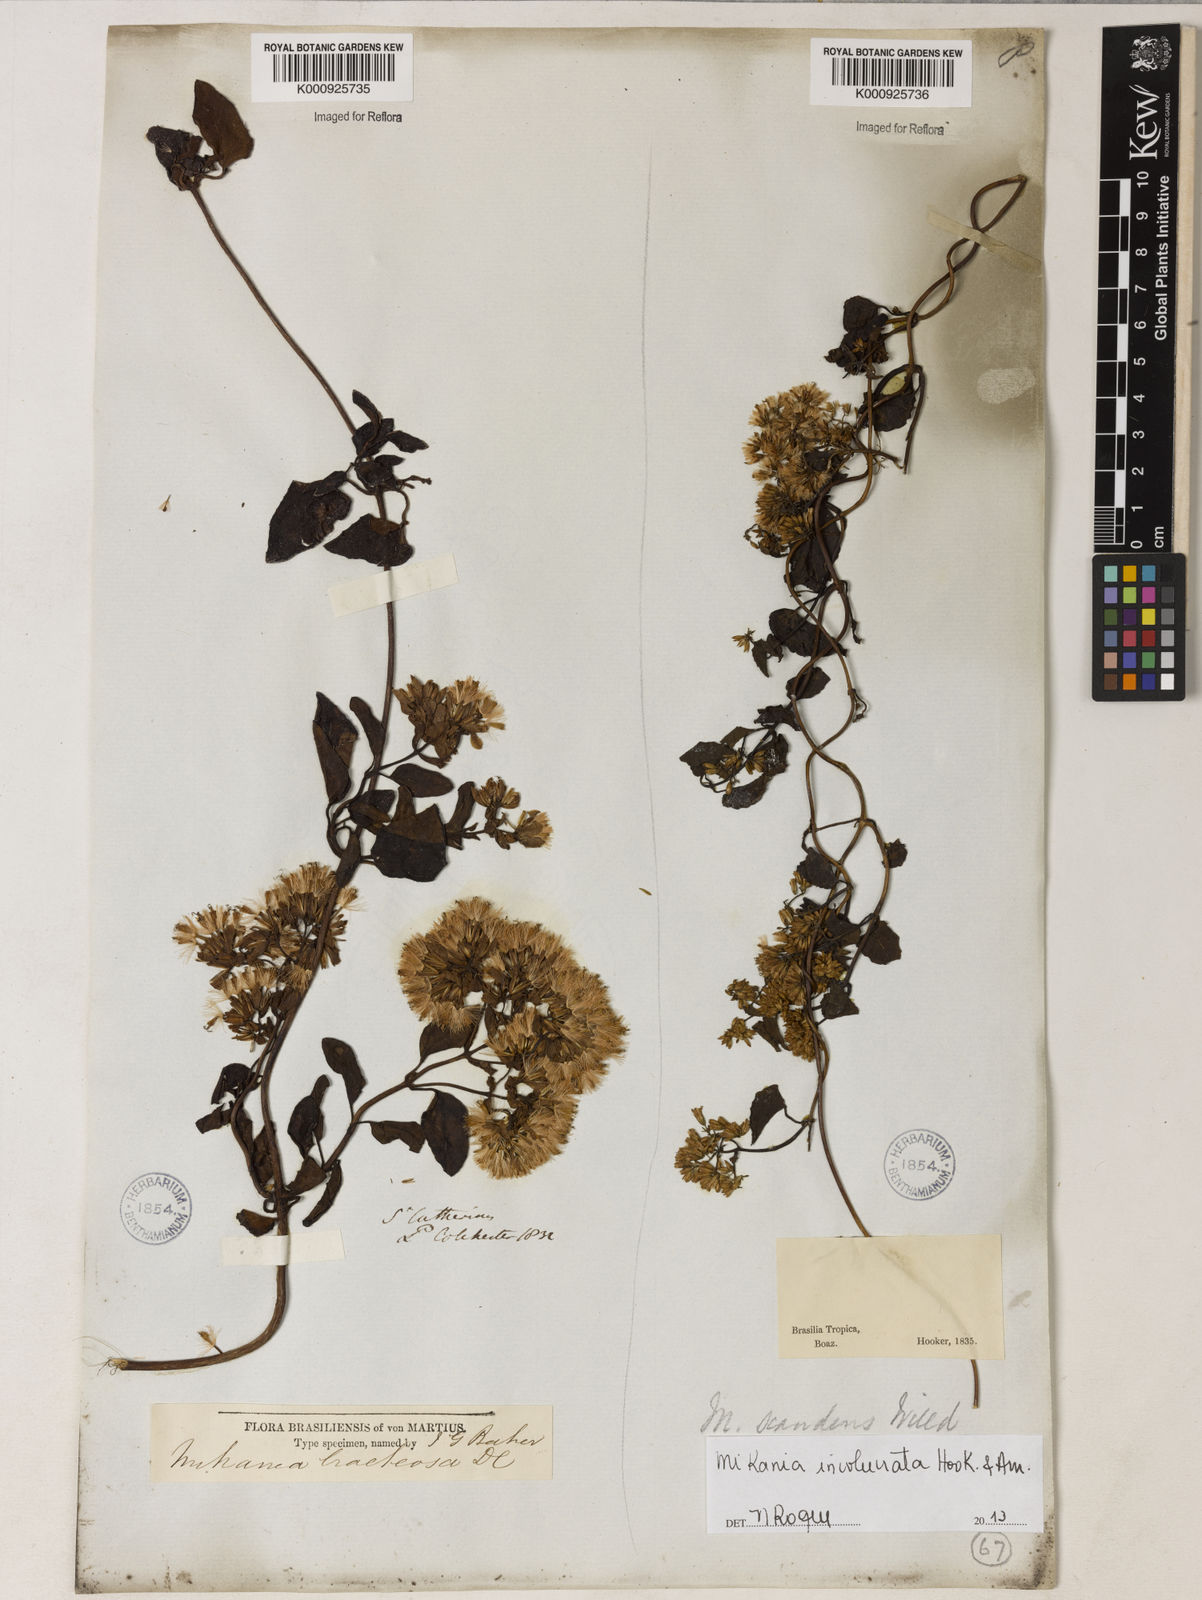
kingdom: Plantae
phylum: Tracheophyta
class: Magnoliopsida
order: Asterales
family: Asteraceae
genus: Mikania
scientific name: Mikania involucrata
